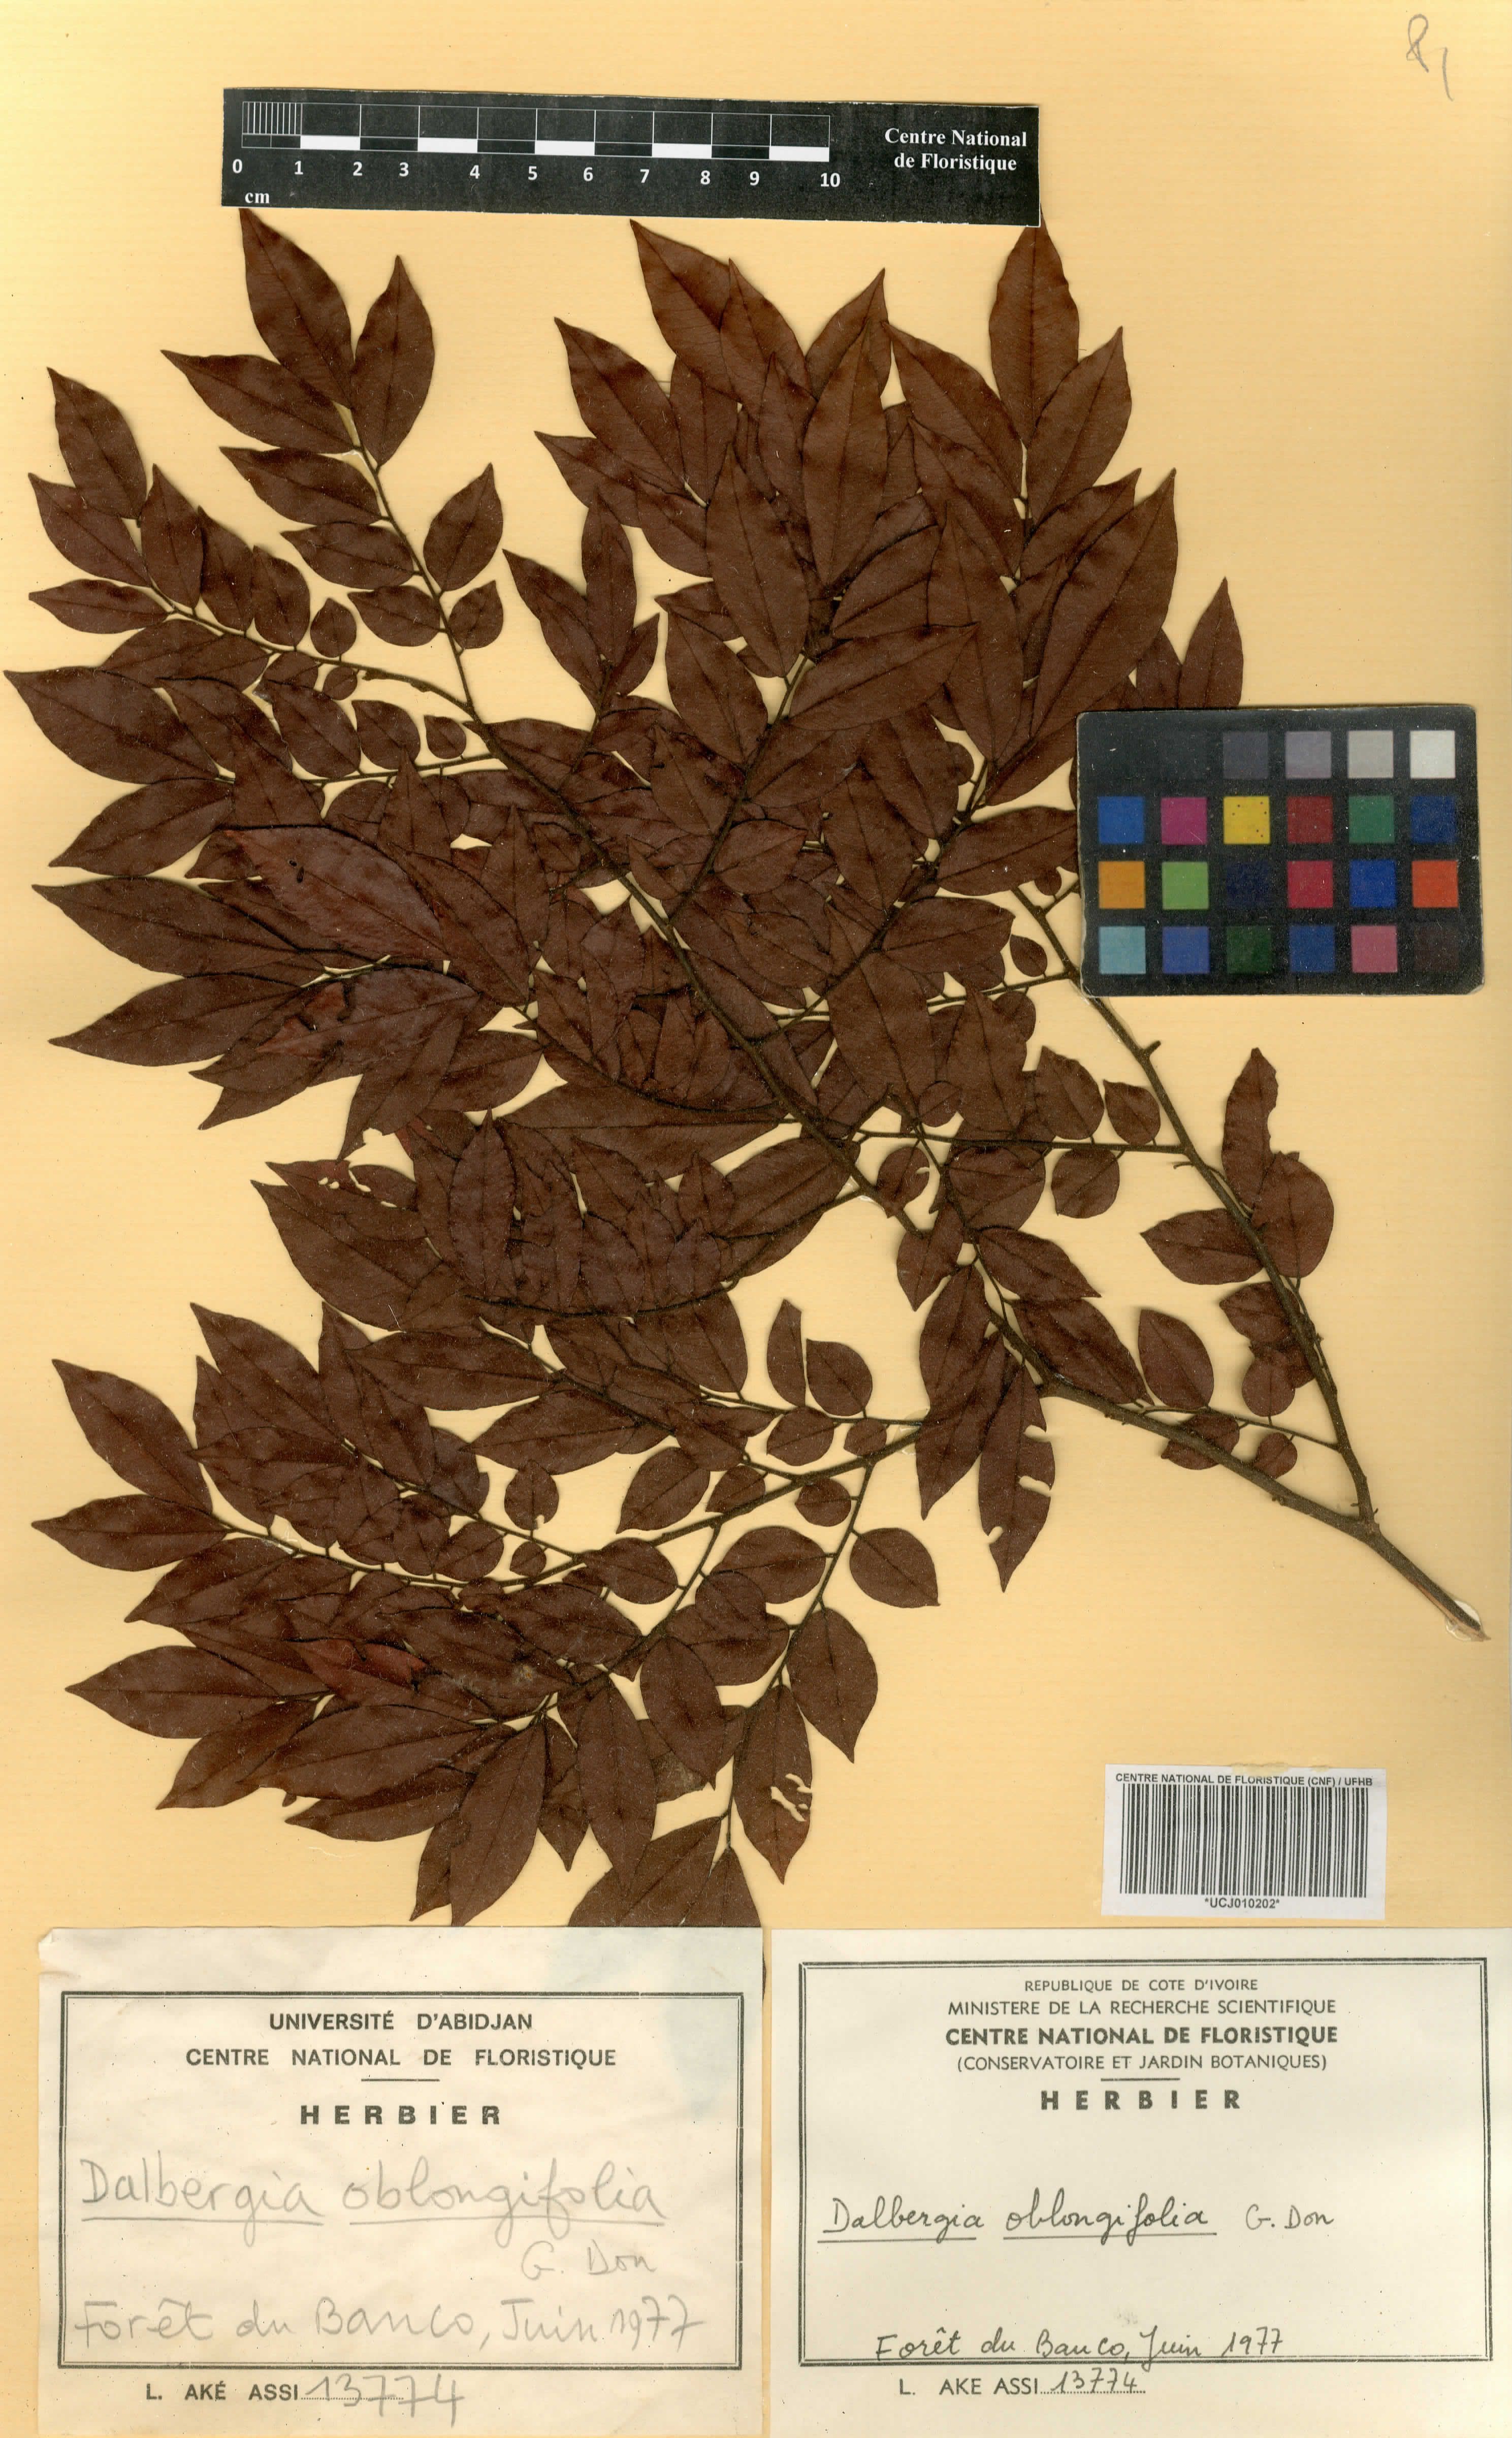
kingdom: Plantae
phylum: Tracheophyta
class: Magnoliopsida
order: Fabales
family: Fabaceae
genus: Dalbergia
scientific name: Dalbergia oblongifolia
